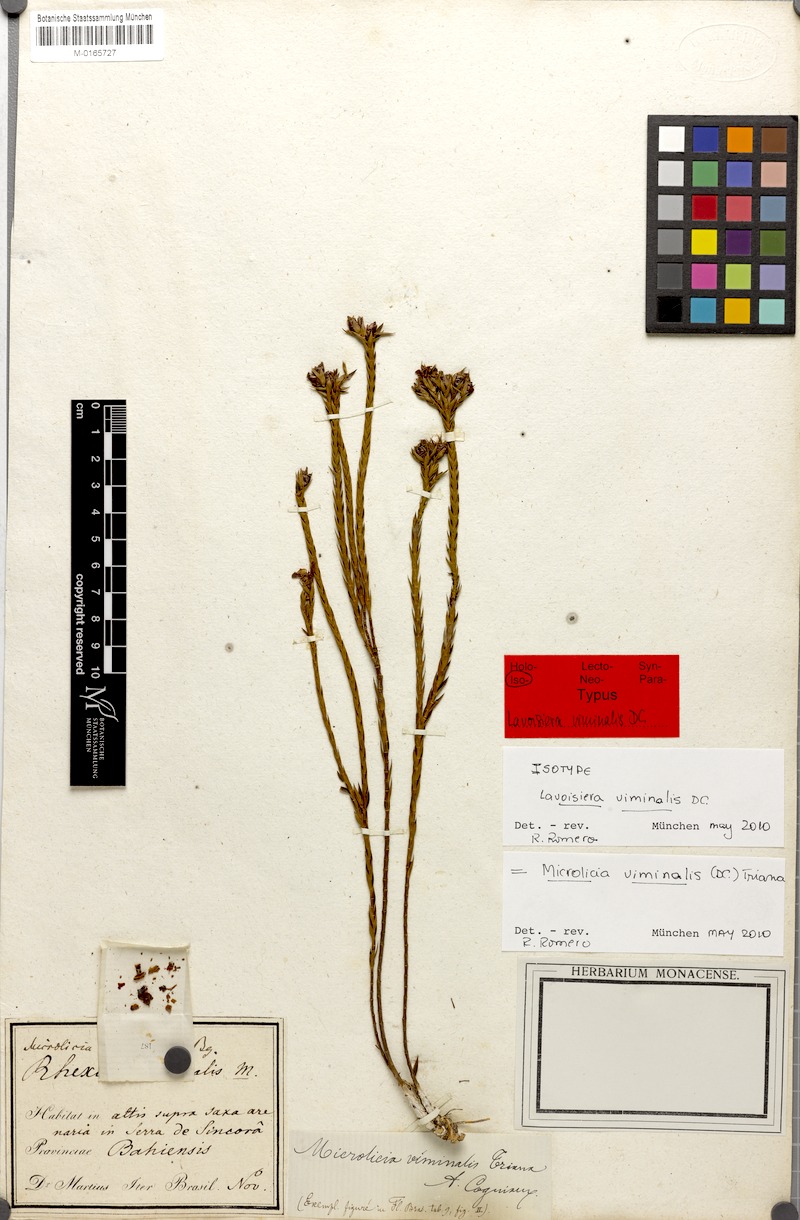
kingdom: Plantae
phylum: Tracheophyta
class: Magnoliopsida
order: Myrtales
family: Melastomataceae
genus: Microlicia
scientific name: Microlicia viminalis
